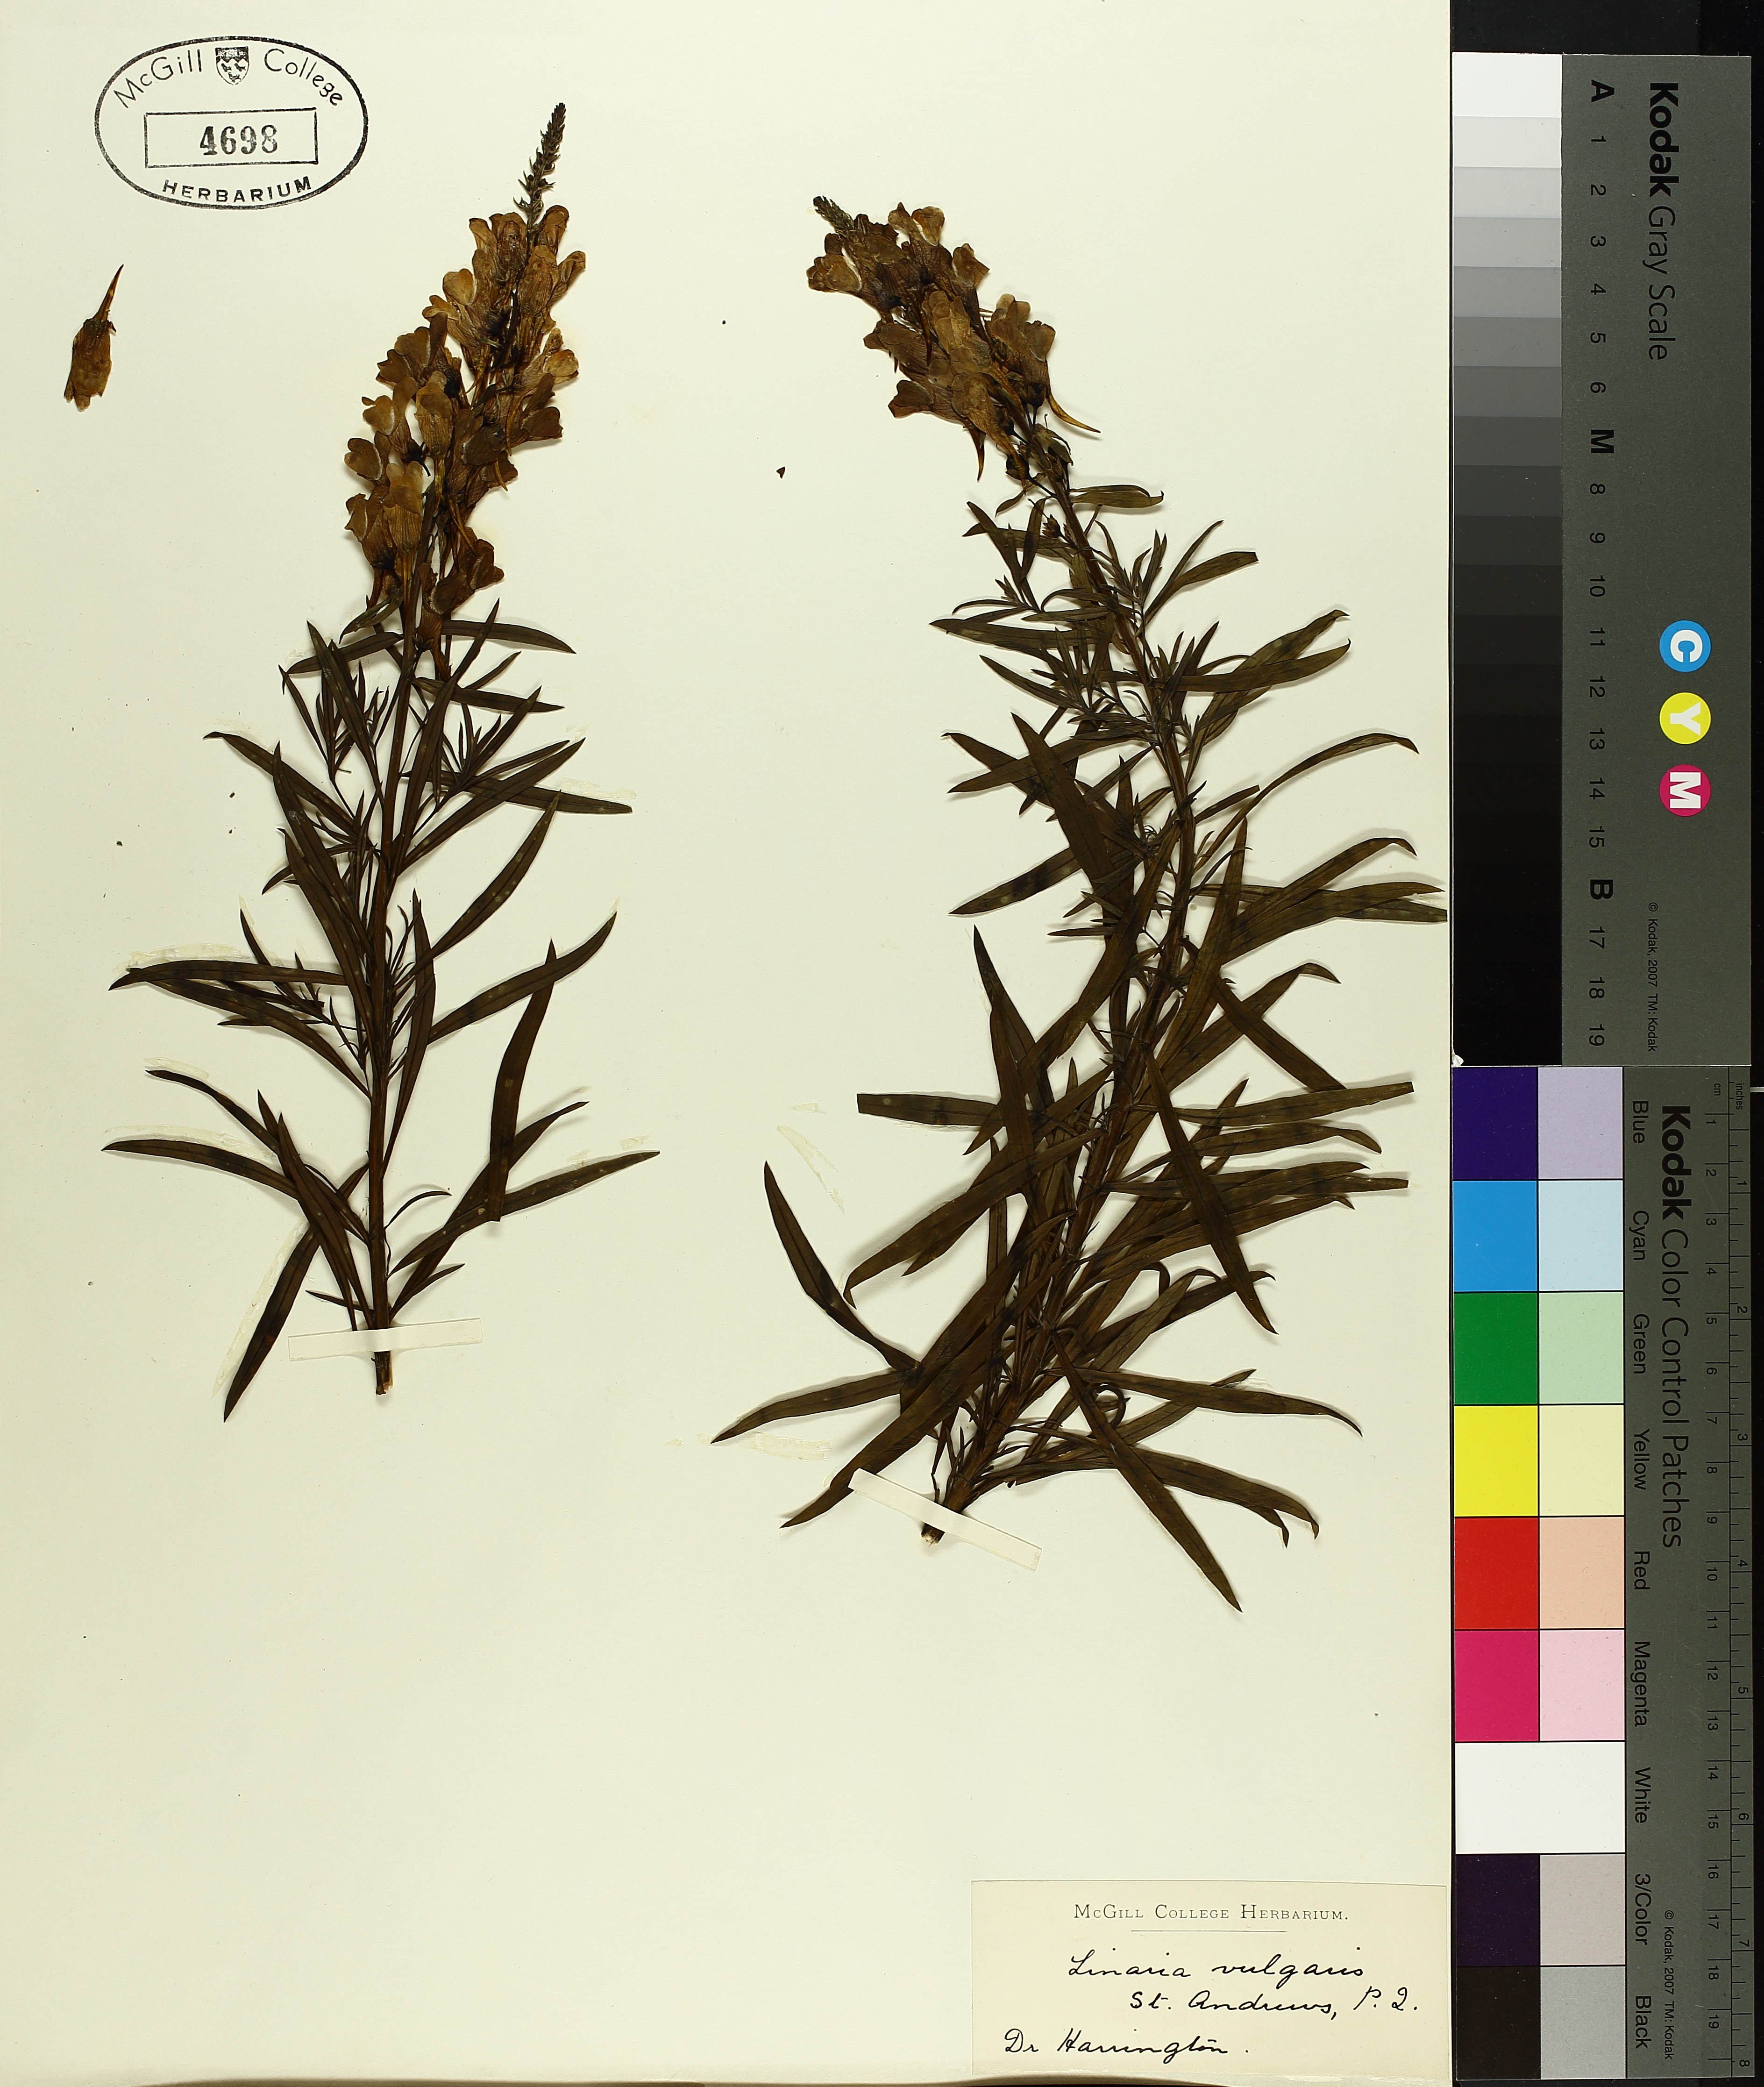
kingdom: Plantae
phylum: Tracheophyta
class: Magnoliopsida
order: Lamiales
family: Plantaginaceae
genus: Hippuris
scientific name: Hippuris vulgaris
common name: Mare's-tail
